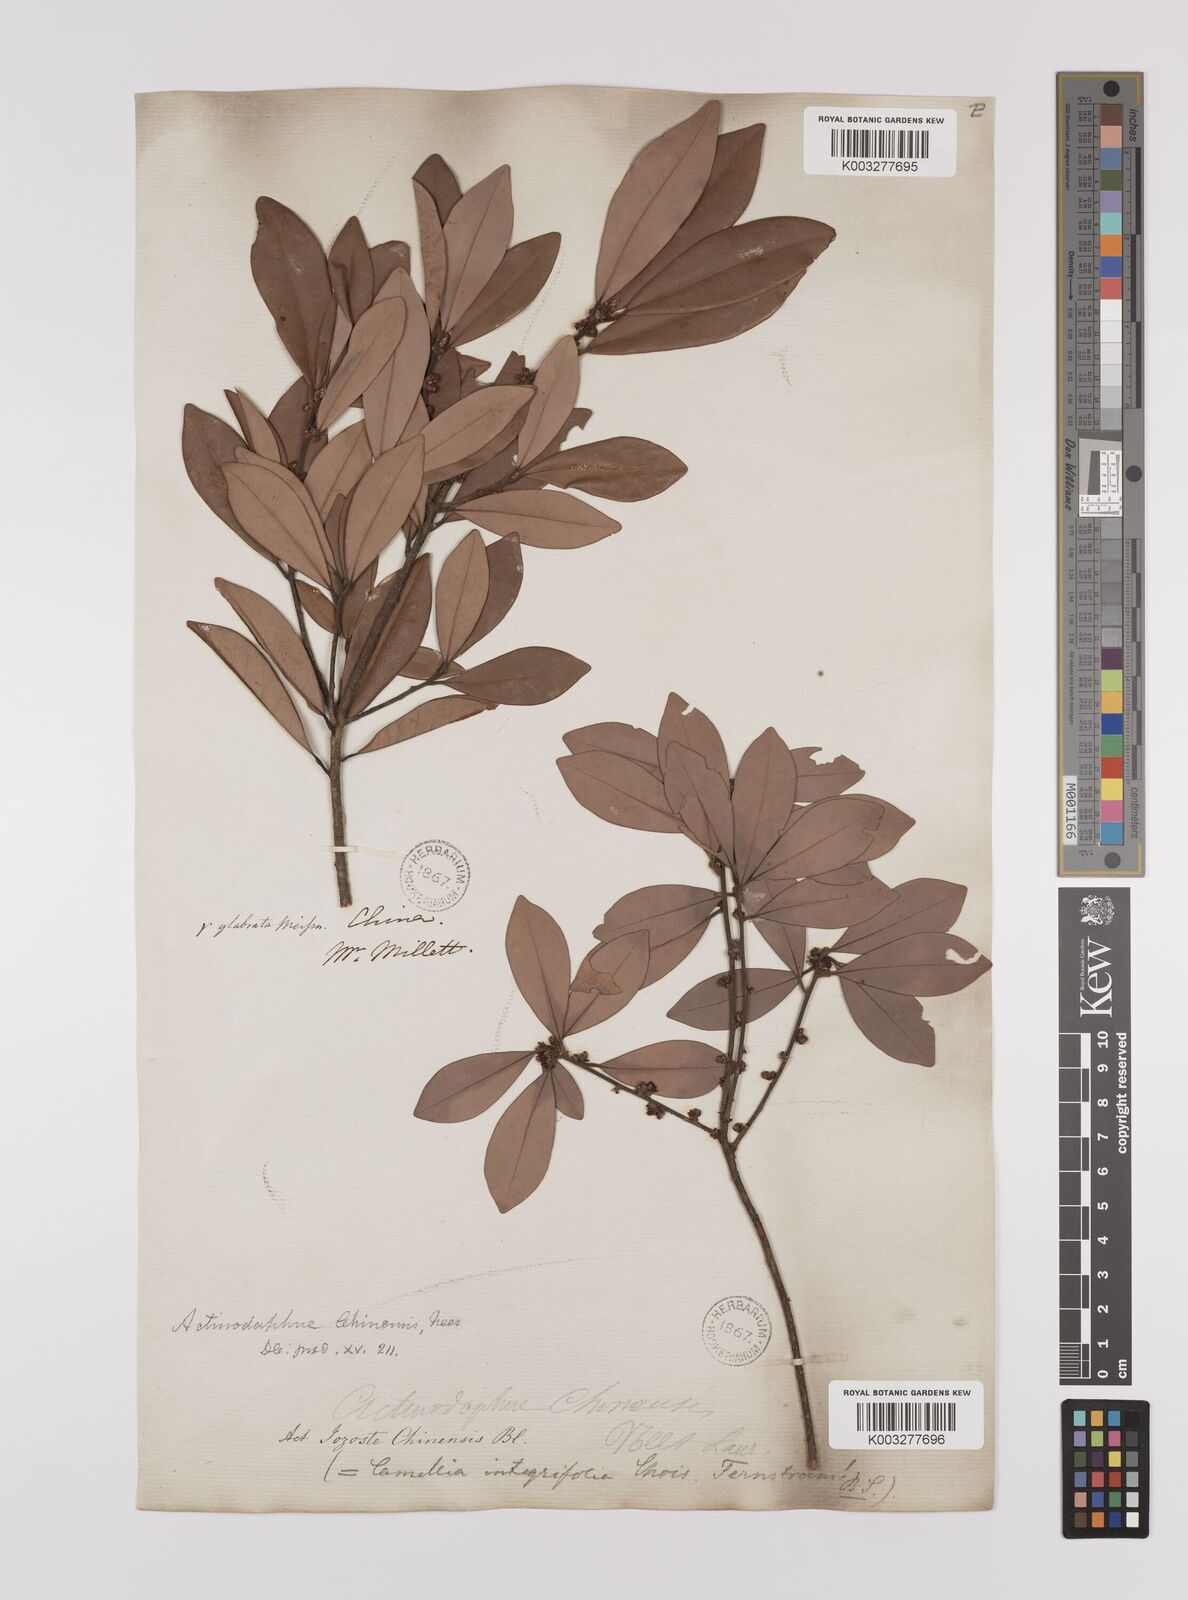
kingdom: Plantae
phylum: Tracheophyta
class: Magnoliopsida
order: Laurales
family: Lauraceae
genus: Litsea
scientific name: Litsea rotundifolia
